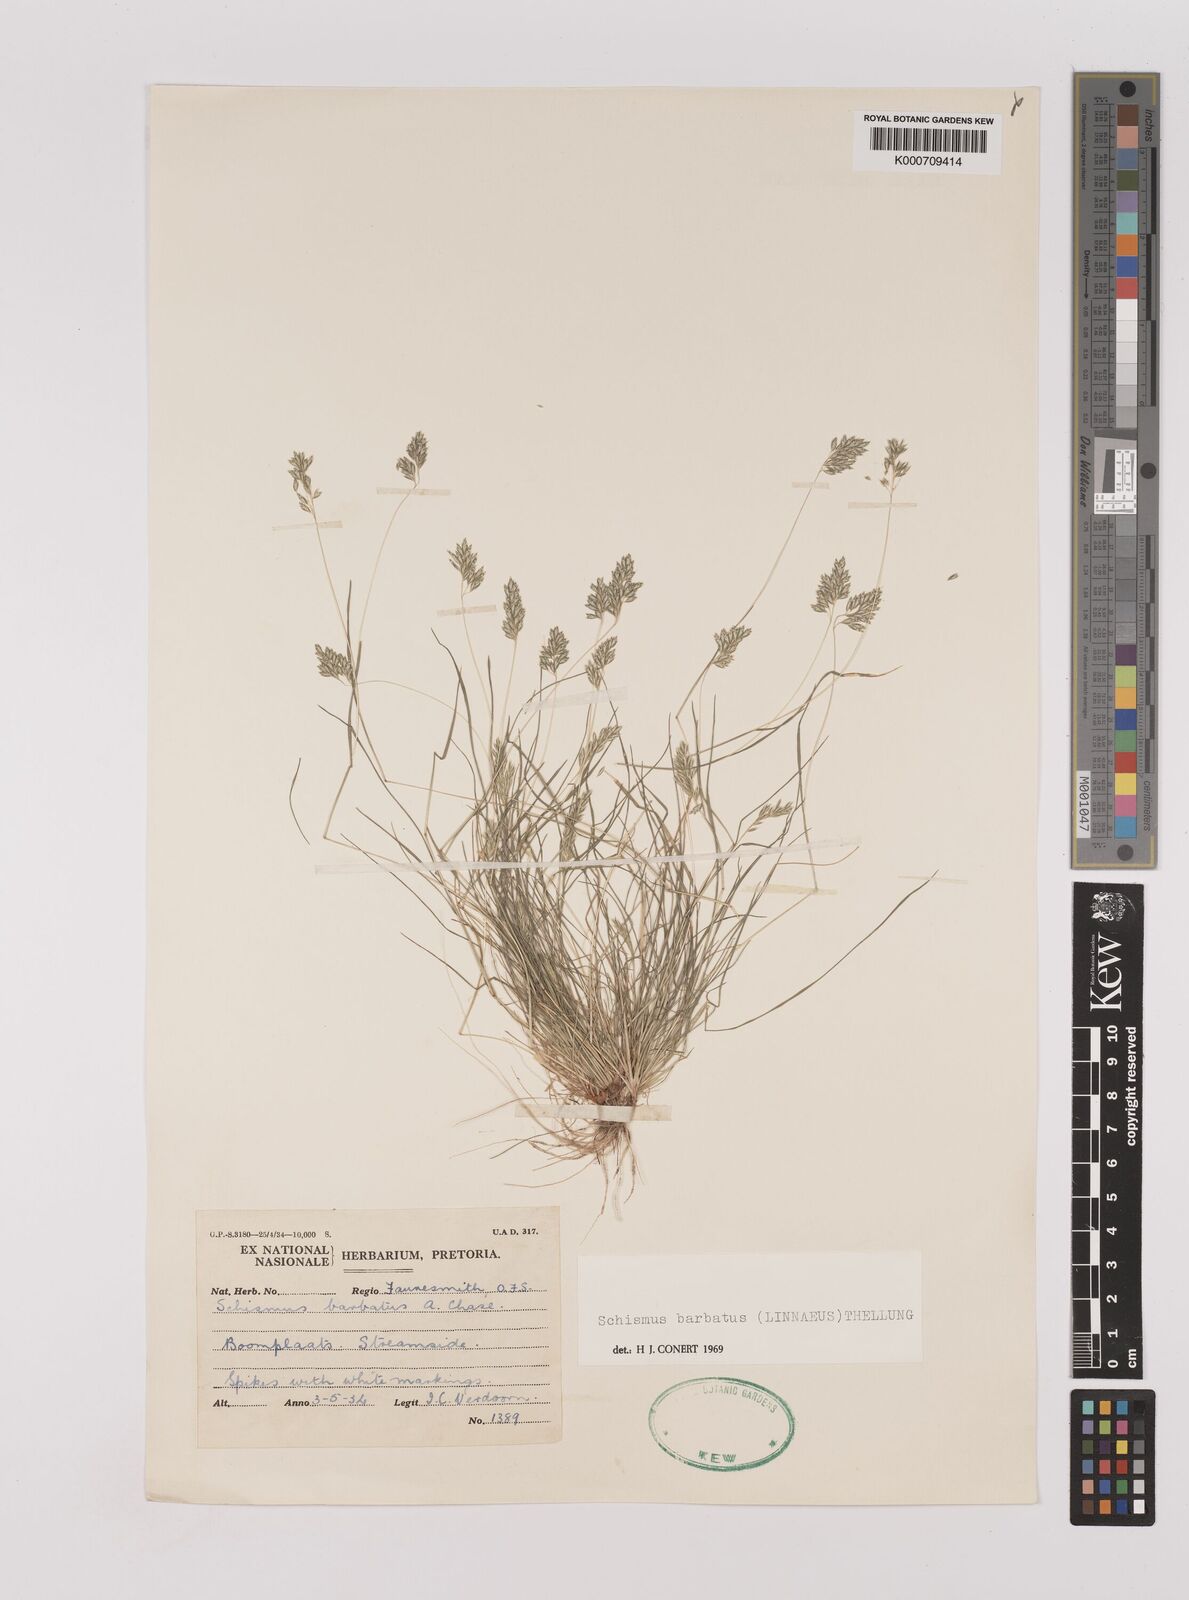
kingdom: Plantae
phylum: Tracheophyta
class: Liliopsida
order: Poales
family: Poaceae
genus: Schismus
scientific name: Schismus barbatus
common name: Kelch-grass
